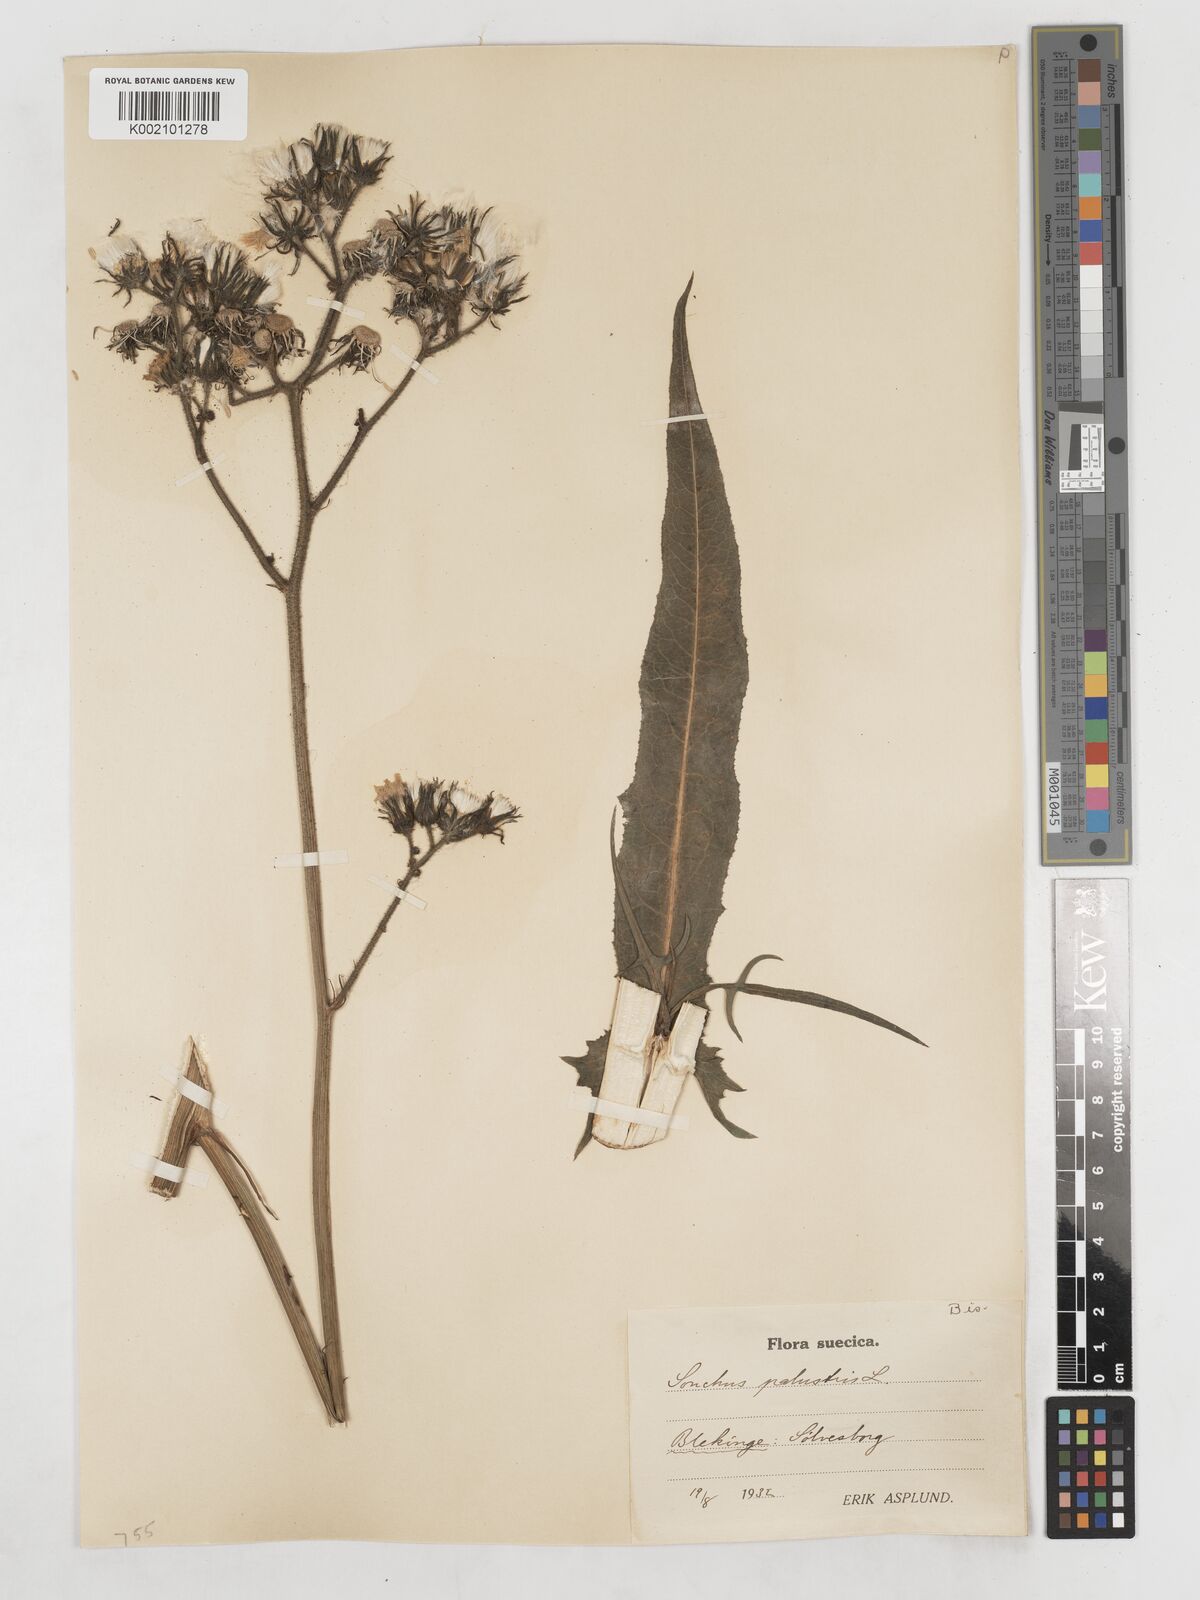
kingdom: Plantae
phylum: Tracheophyta
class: Magnoliopsida
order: Asterales
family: Asteraceae
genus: Sonchus
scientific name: Sonchus palustris
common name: Marsh sow-thistle
